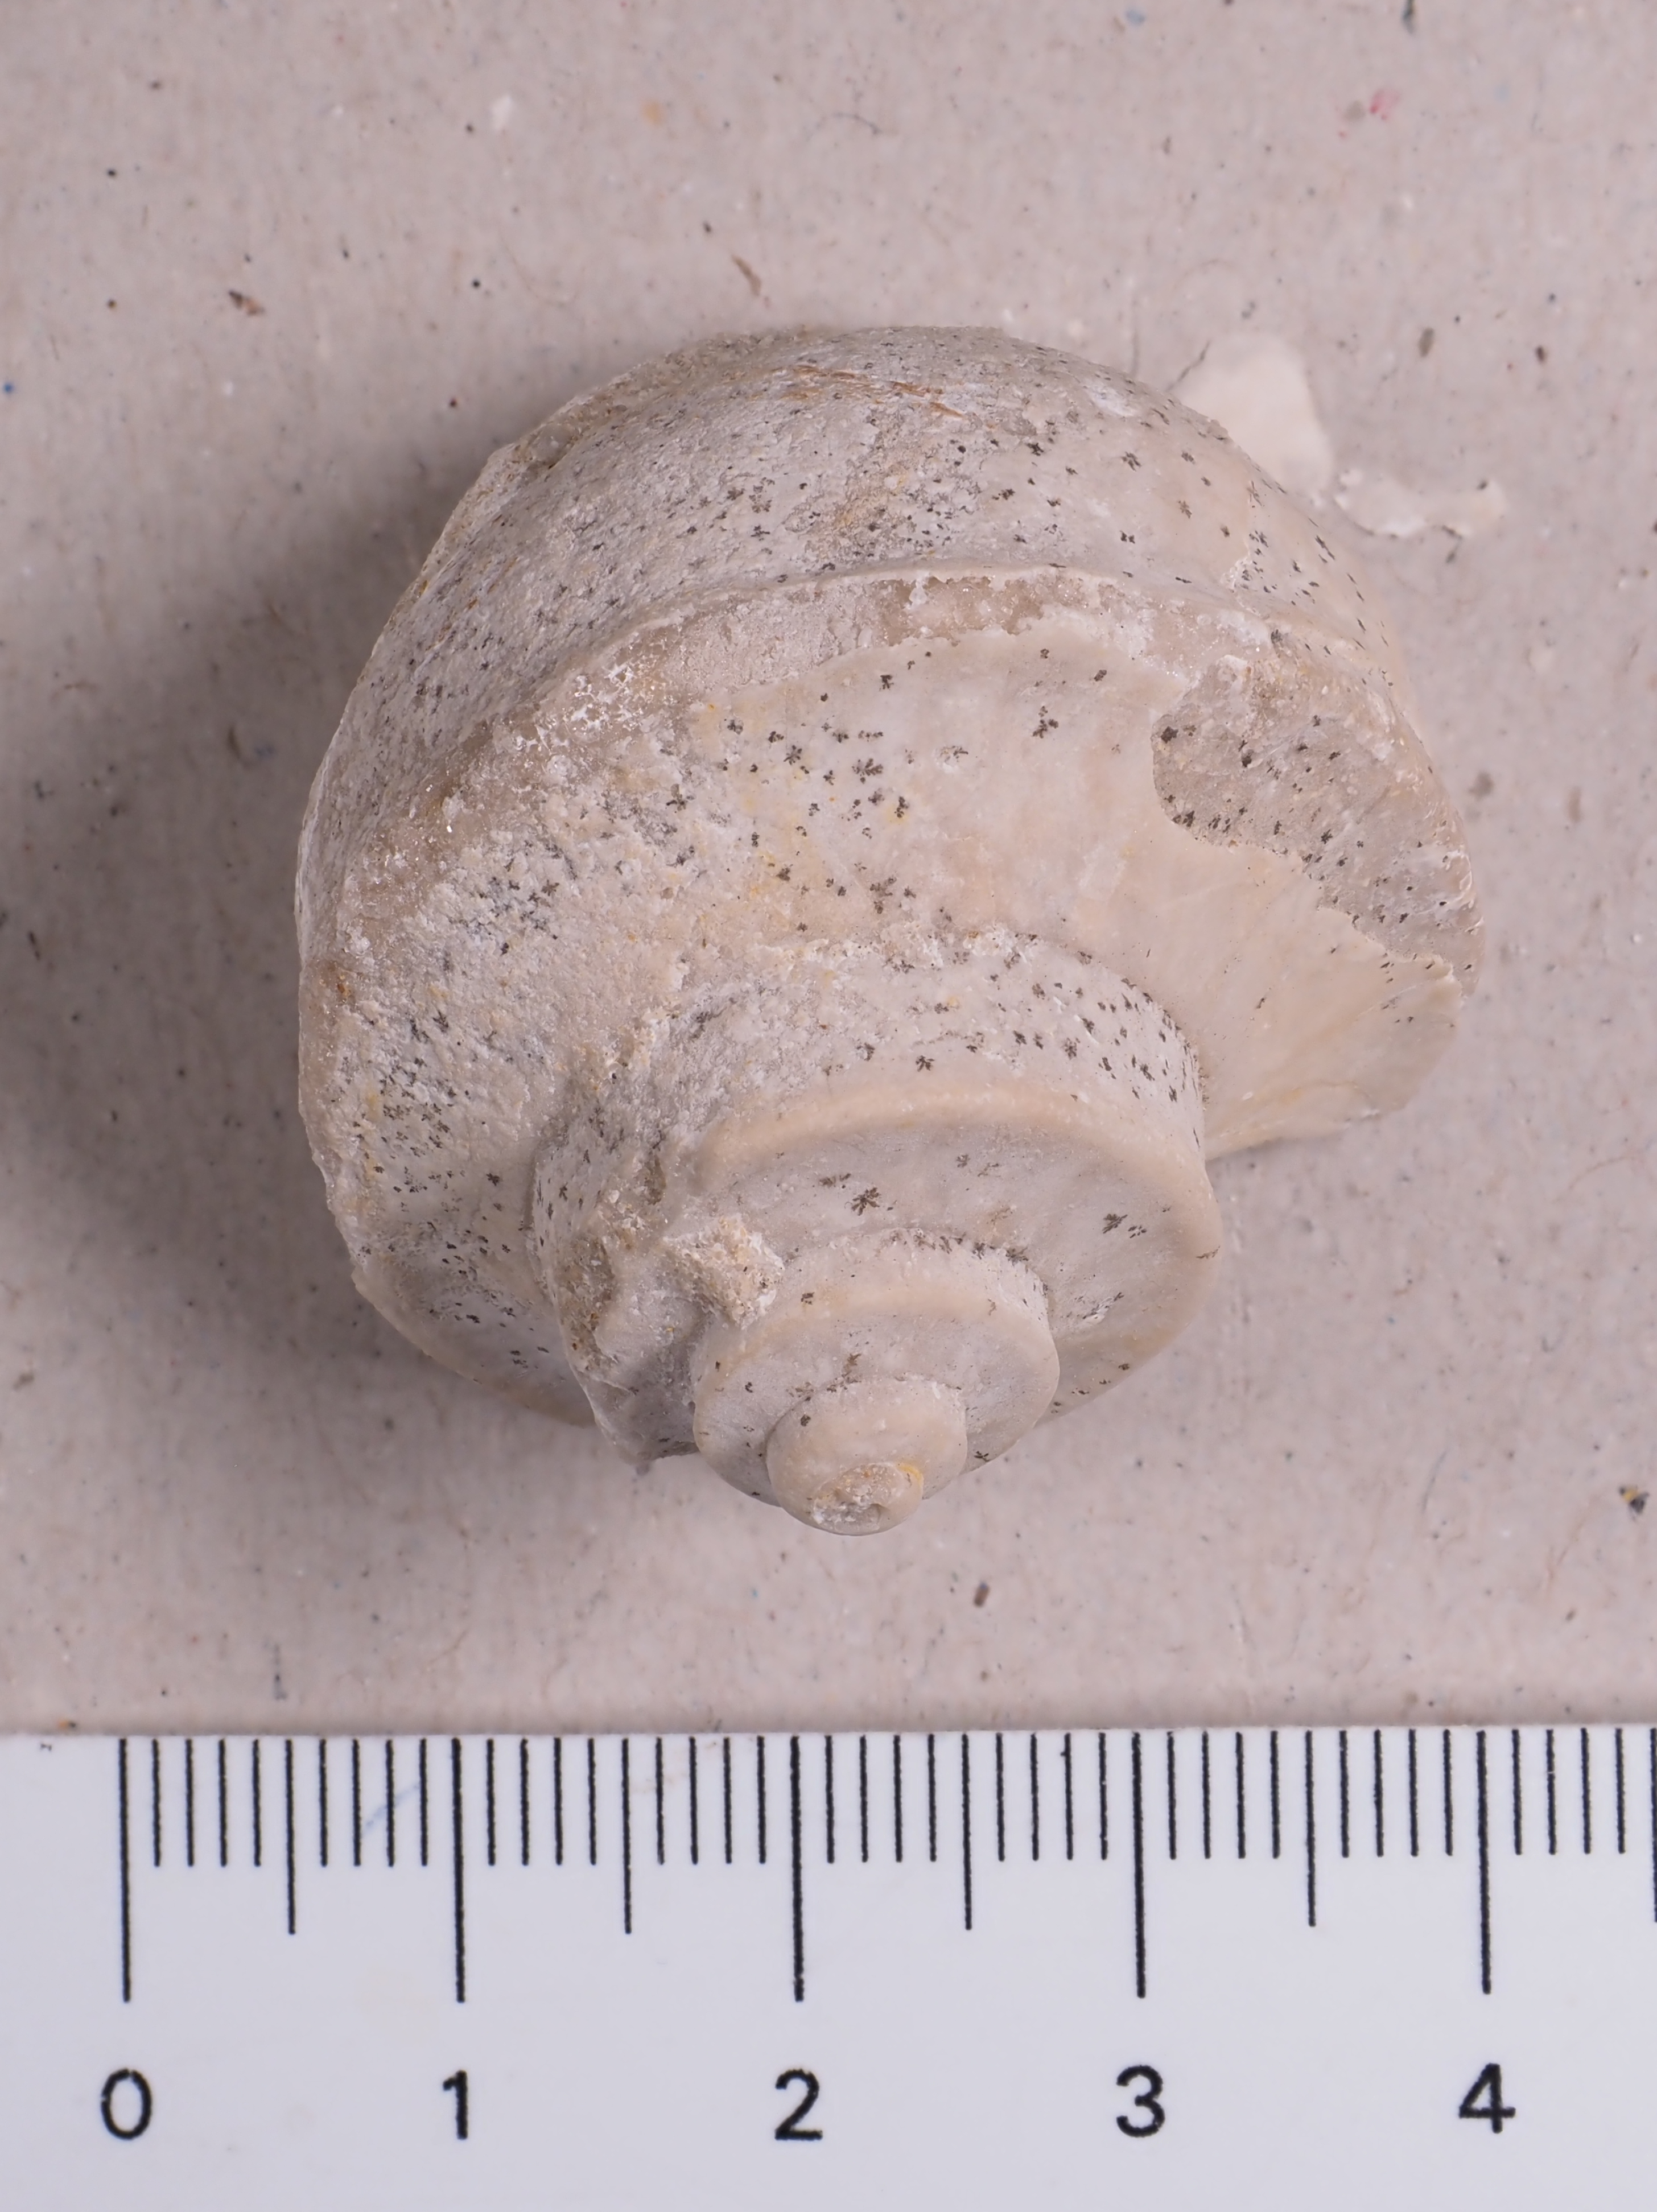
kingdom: Animalia
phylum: Mollusca
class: Gastropoda
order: Neogastropoda
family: Purpurinidae
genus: Tretospira
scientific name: Tretospira
